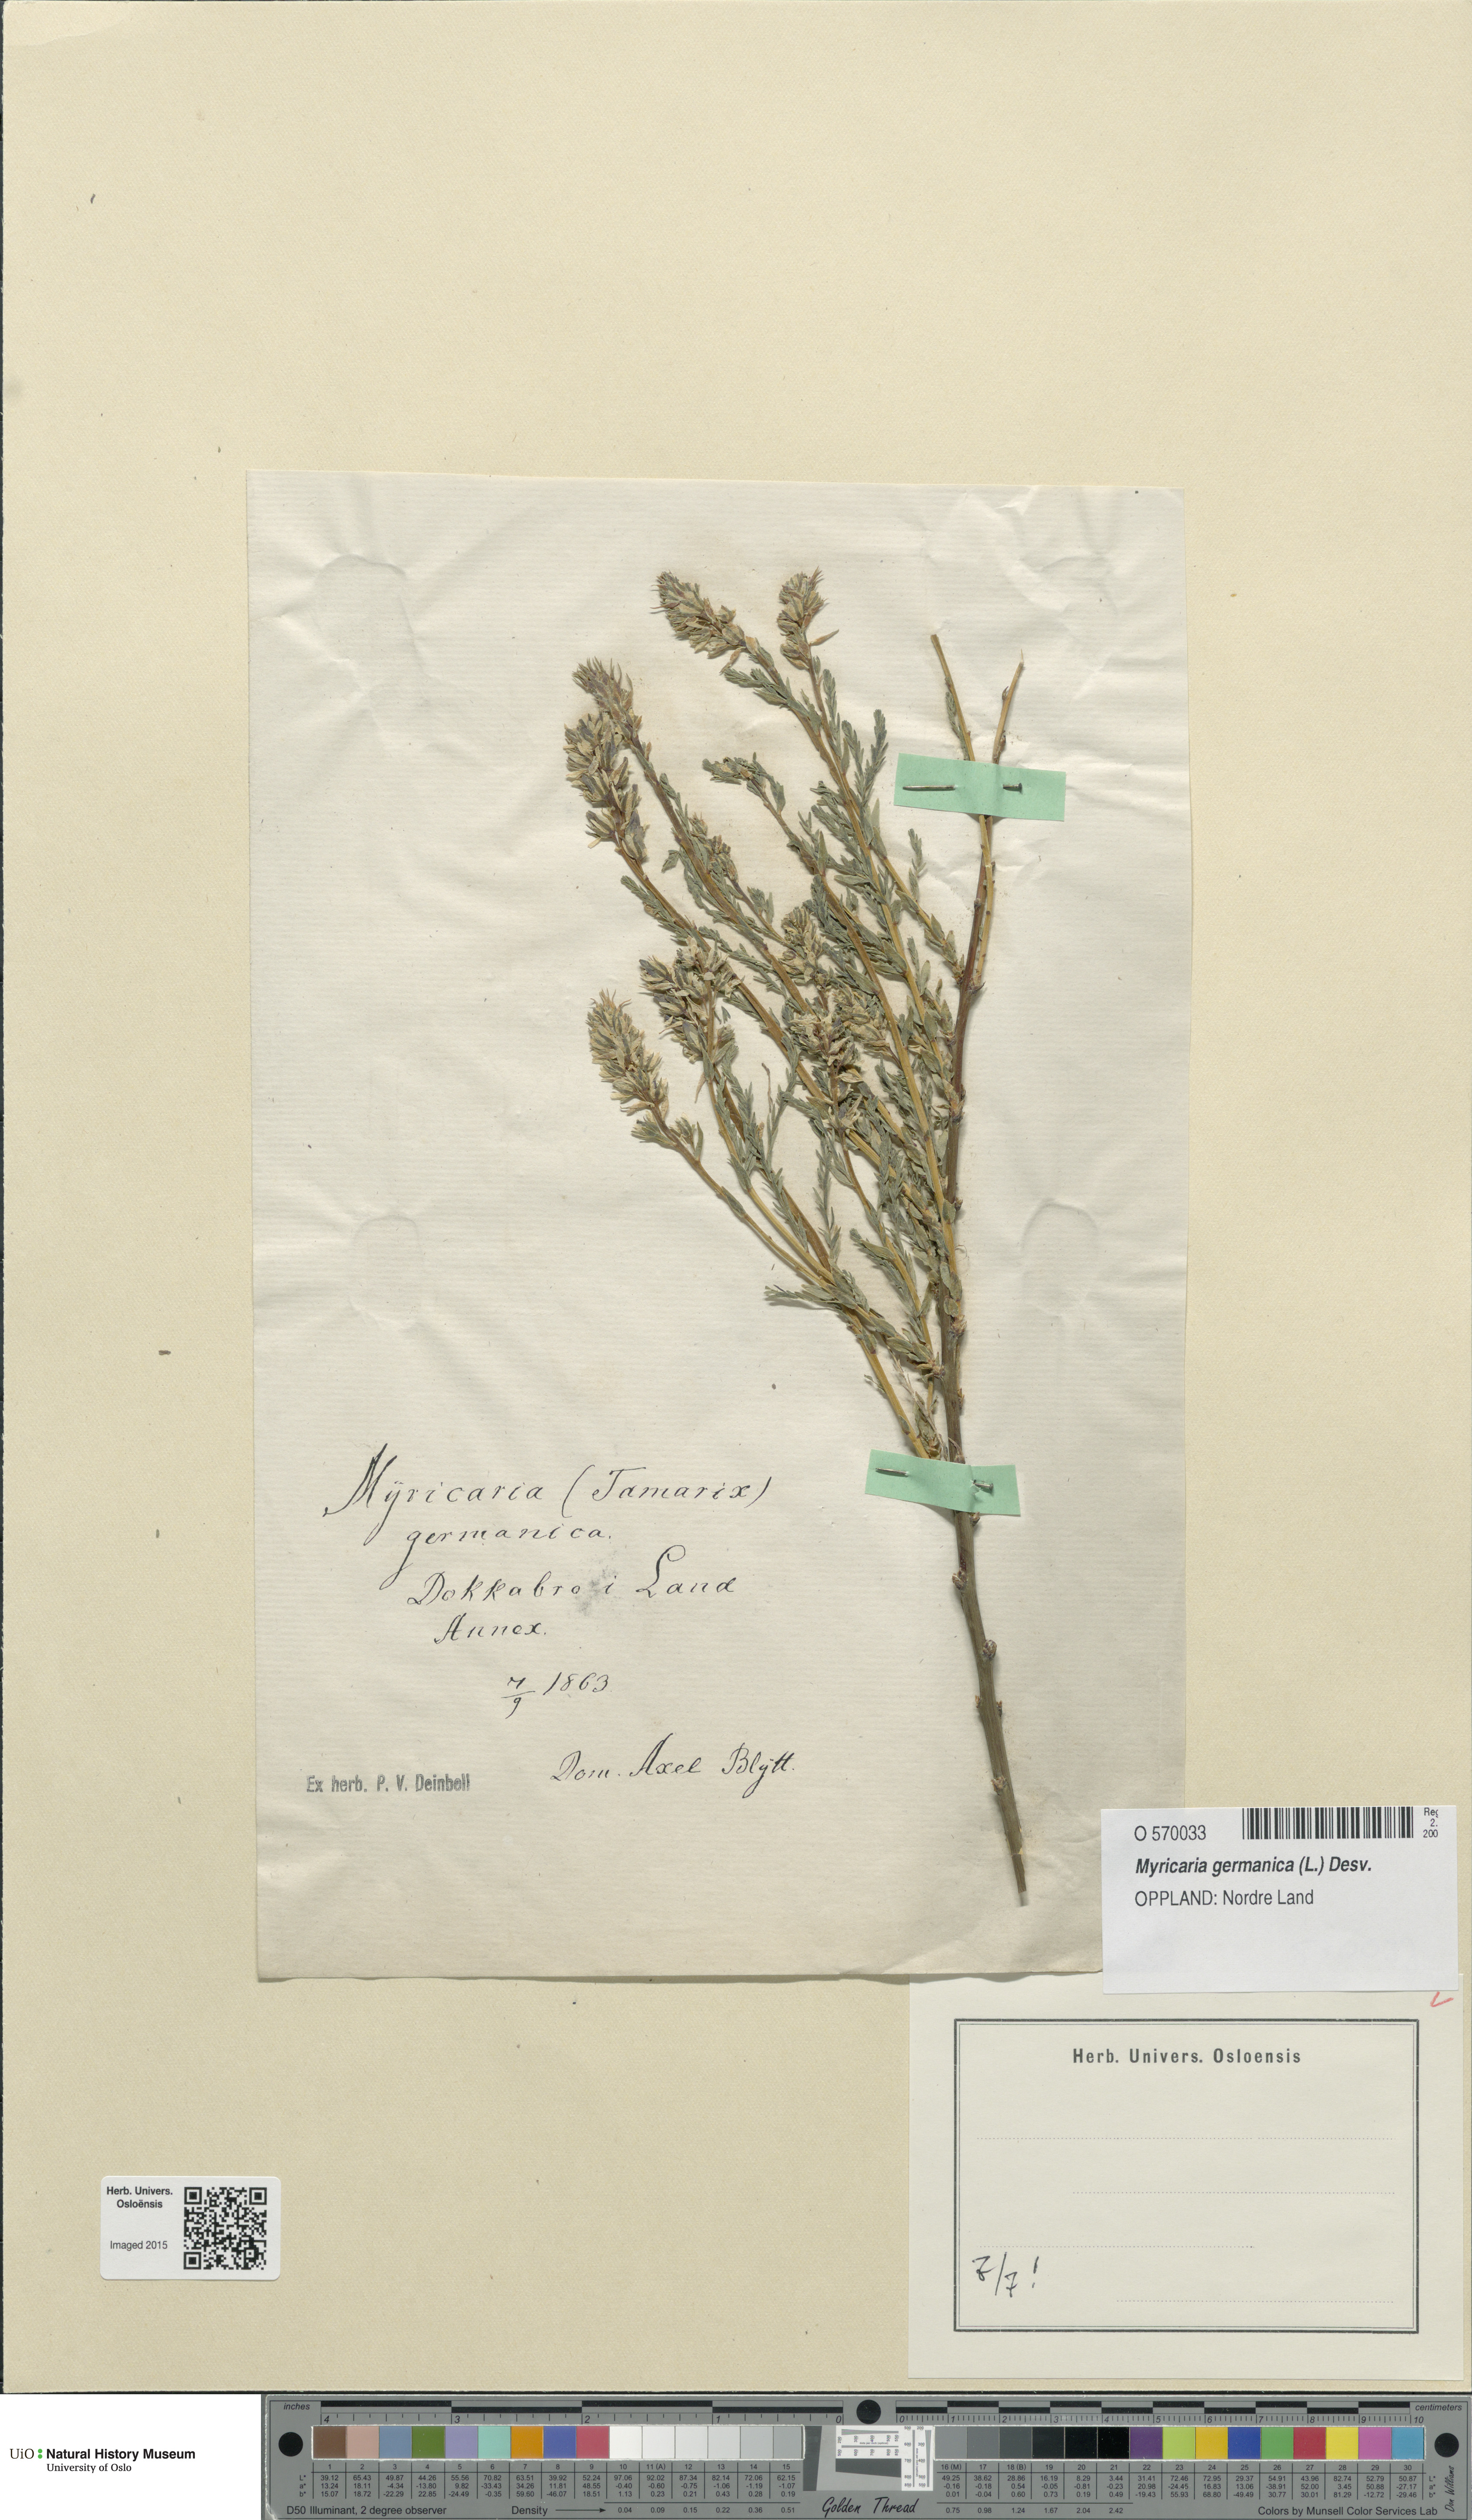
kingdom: Plantae
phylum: Tracheophyta
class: Magnoliopsida
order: Caryophyllales
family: Tamaricaceae
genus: Myricaria
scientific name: Myricaria germanica
